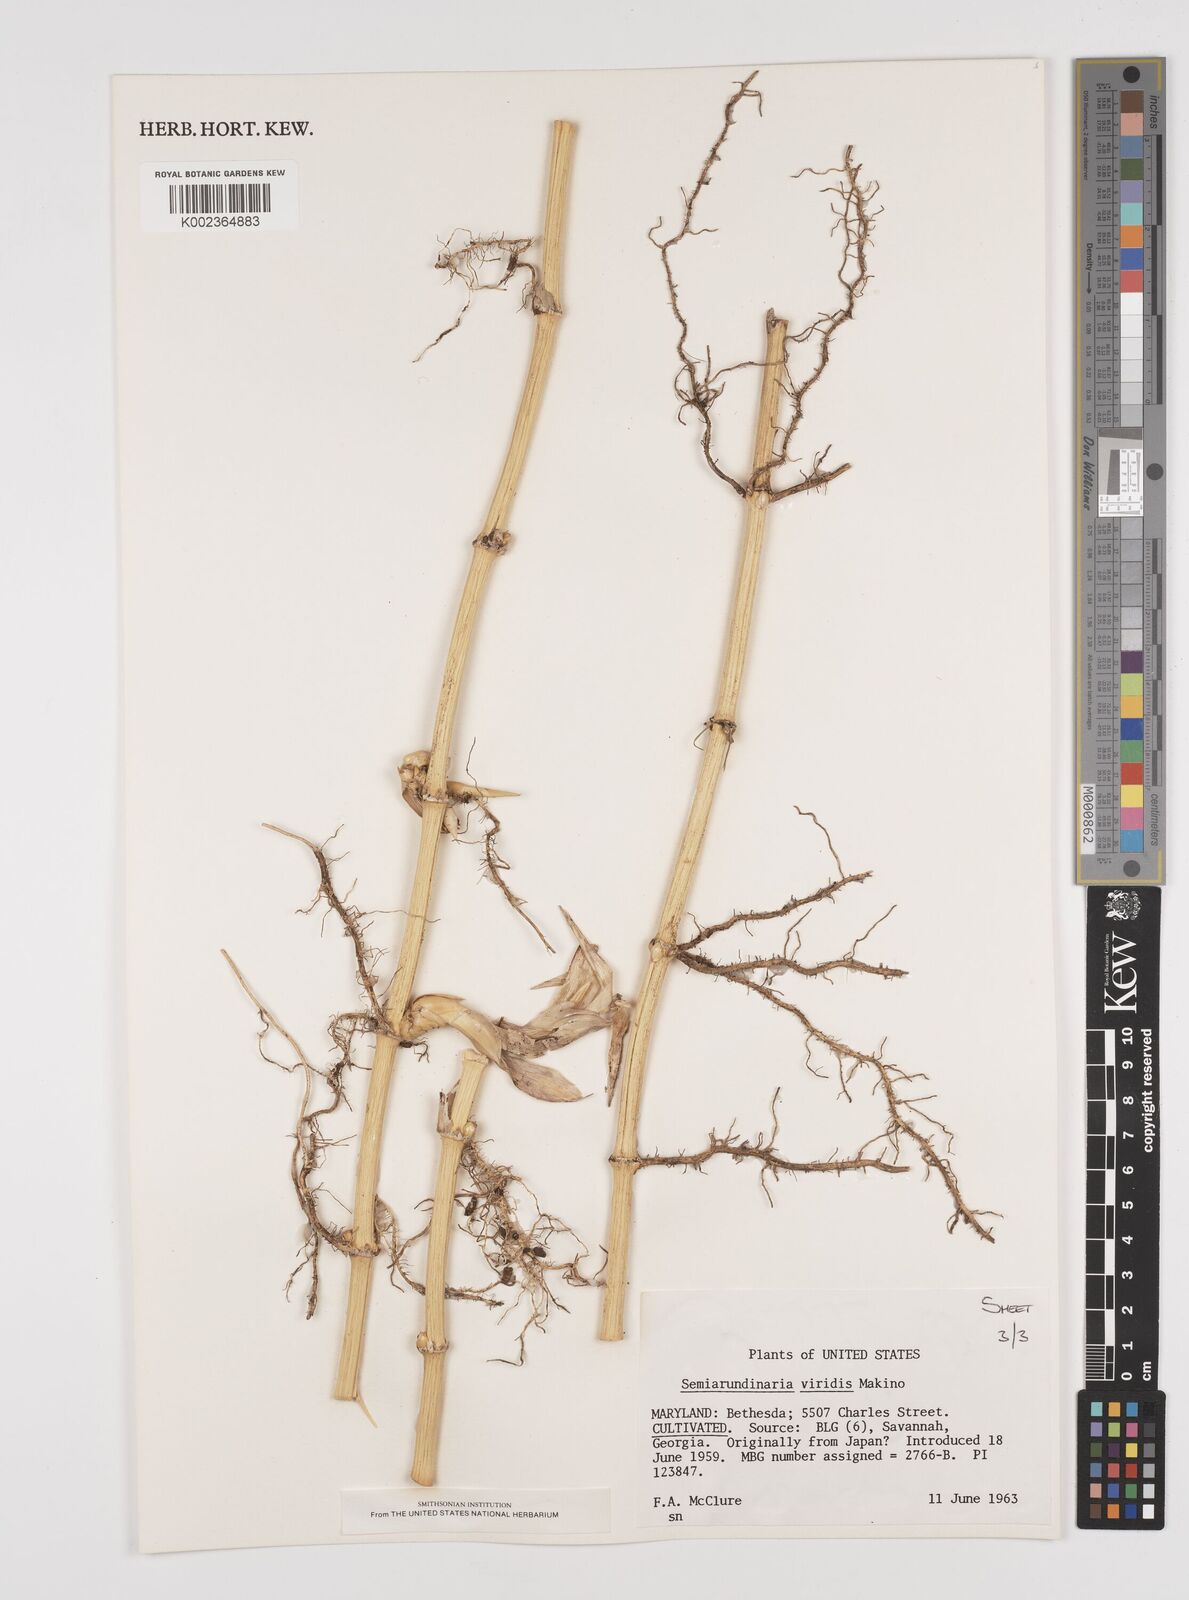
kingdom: Plantae
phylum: Tracheophyta
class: Liliopsida
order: Poales
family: Poaceae
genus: Semiarundinaria
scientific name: Semiarundinaria fastuosa
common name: Narihira bamboo
